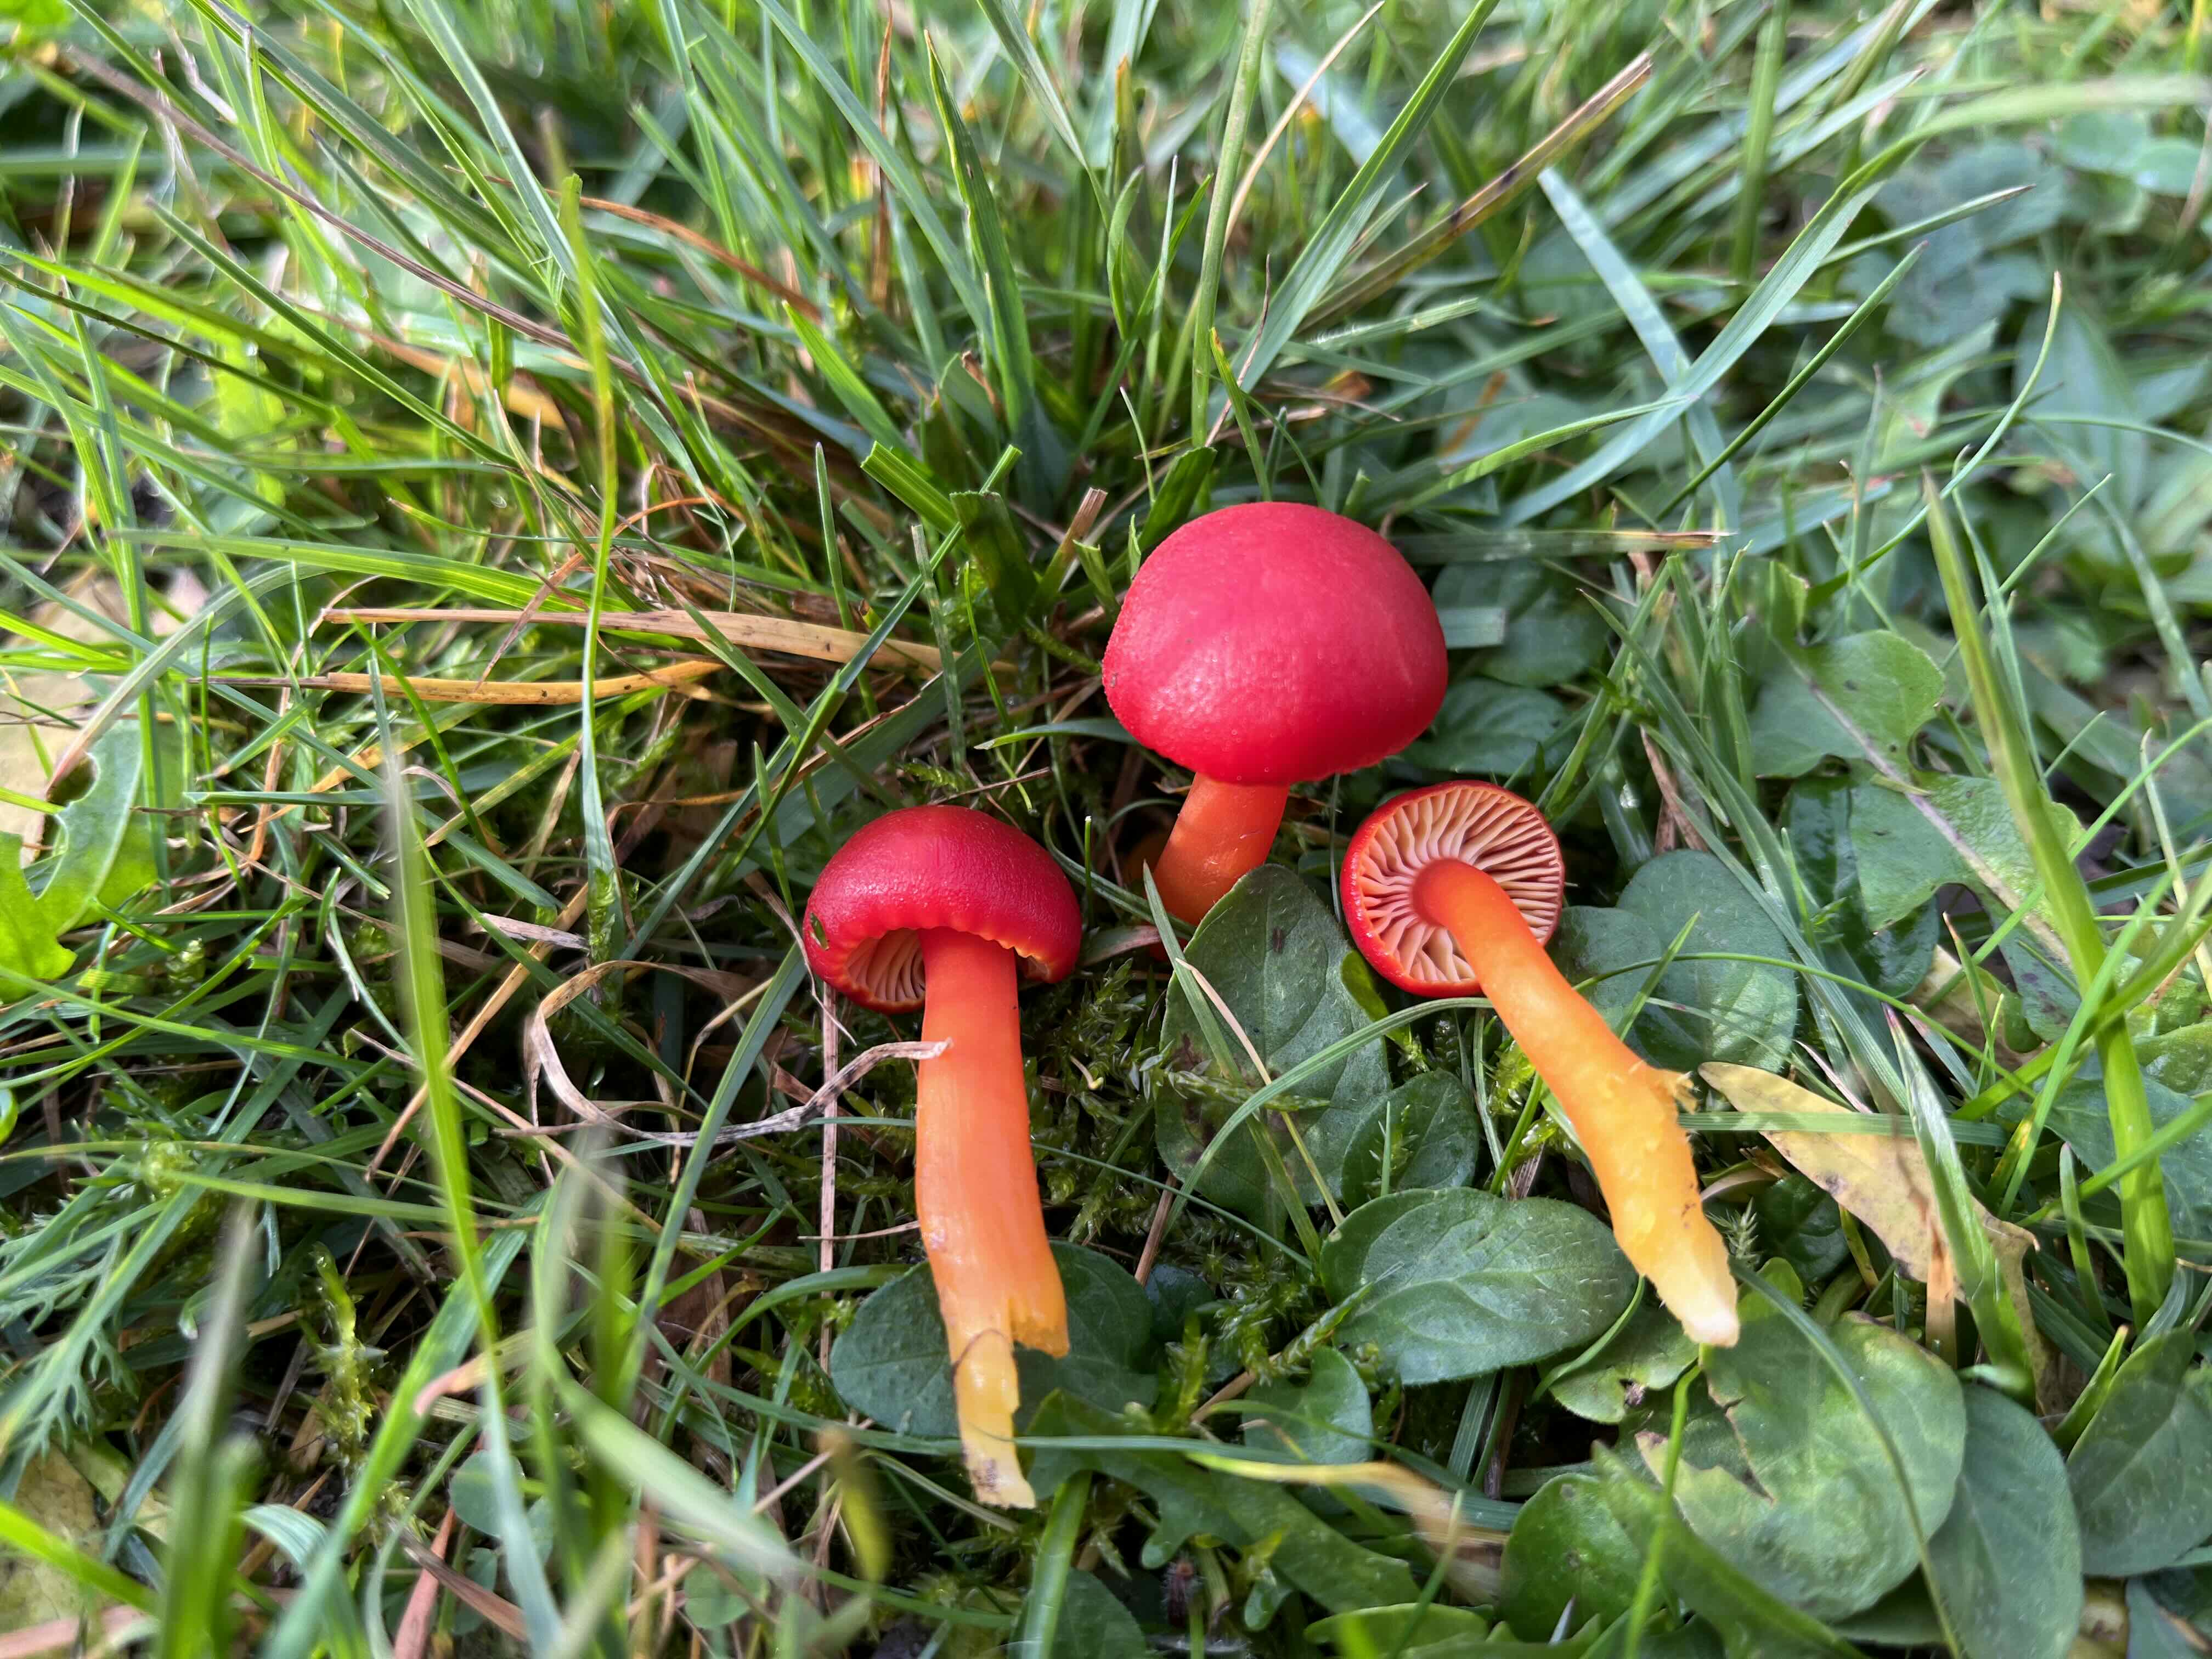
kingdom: Fungi
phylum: Basidiomycota
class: Agaricomycetes
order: Agaricales
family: Hygrophoraceae
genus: Hygrocybe
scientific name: Hygrocybe coccinea
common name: cinnober-vokshat
